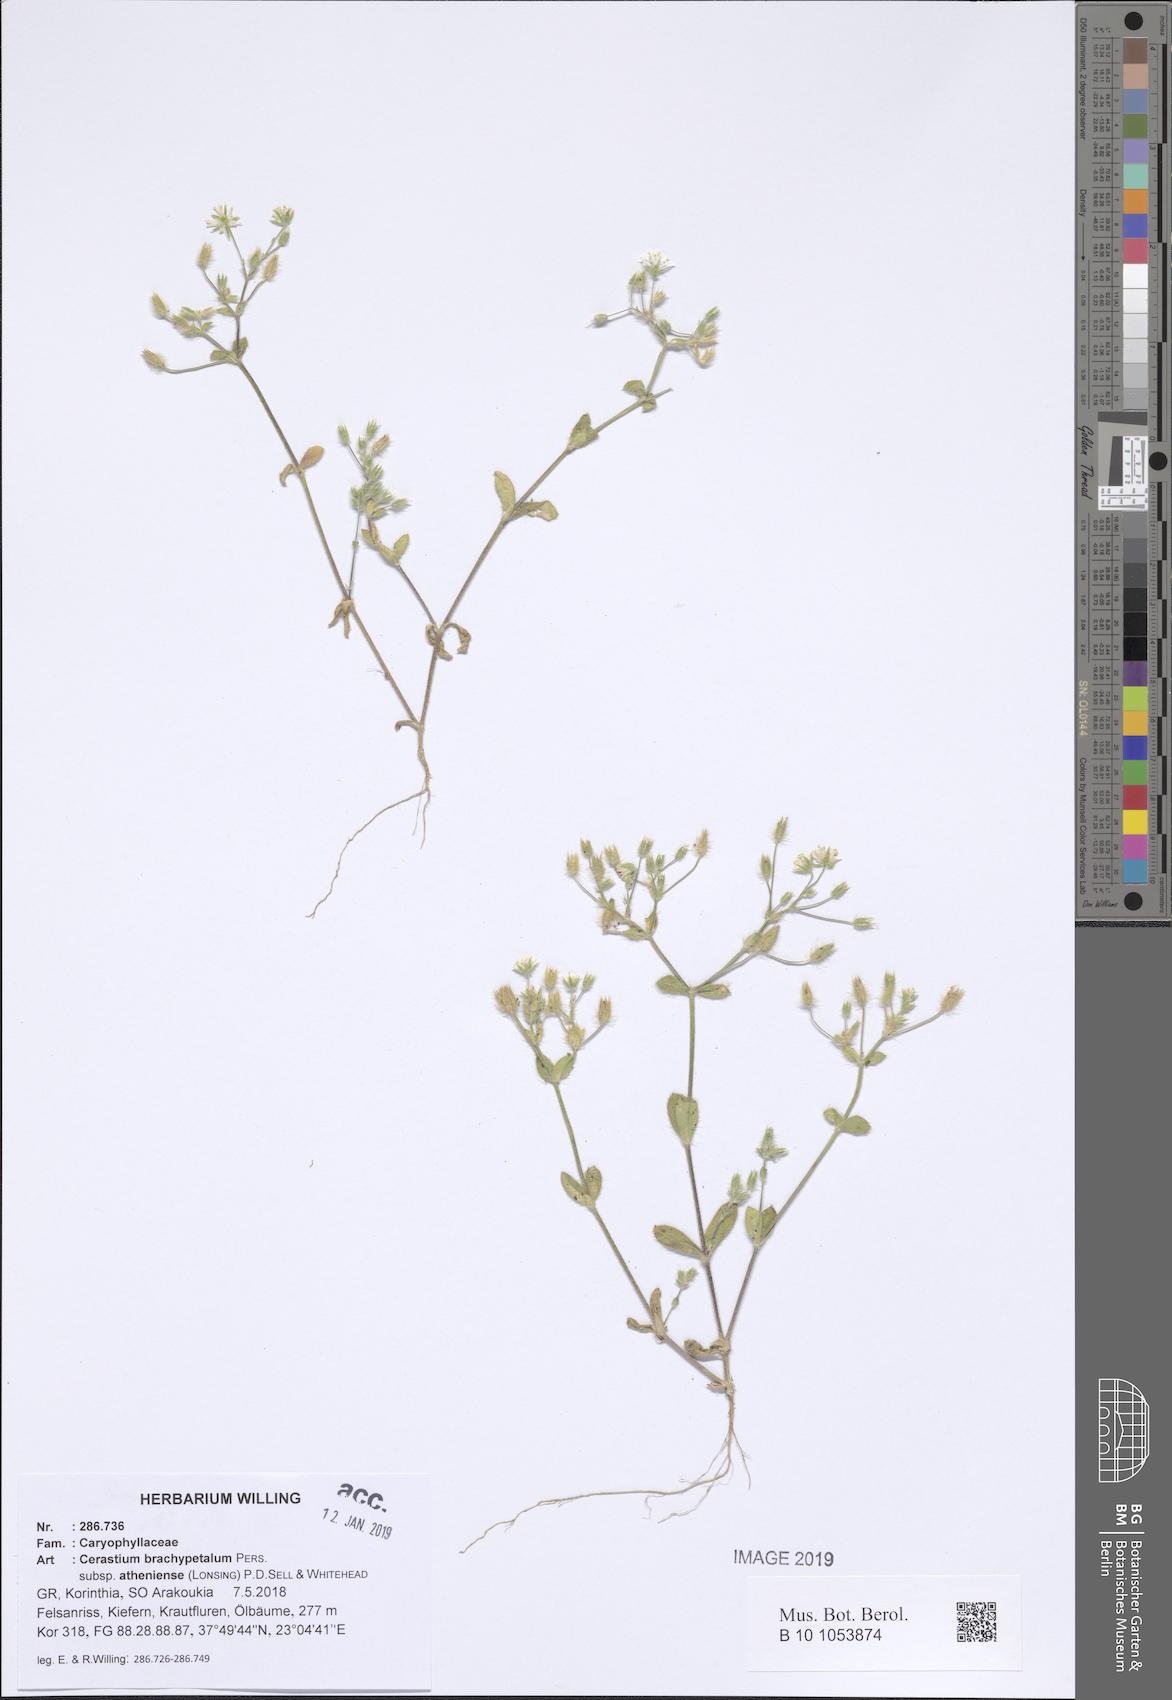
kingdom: Plantae
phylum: Tracheophyta
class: Magnoliopsida
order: Caryophyllales
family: Caryophyllaceae
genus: Cerastium
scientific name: Cerastium brachypetalum
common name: Grey mouse-ear
